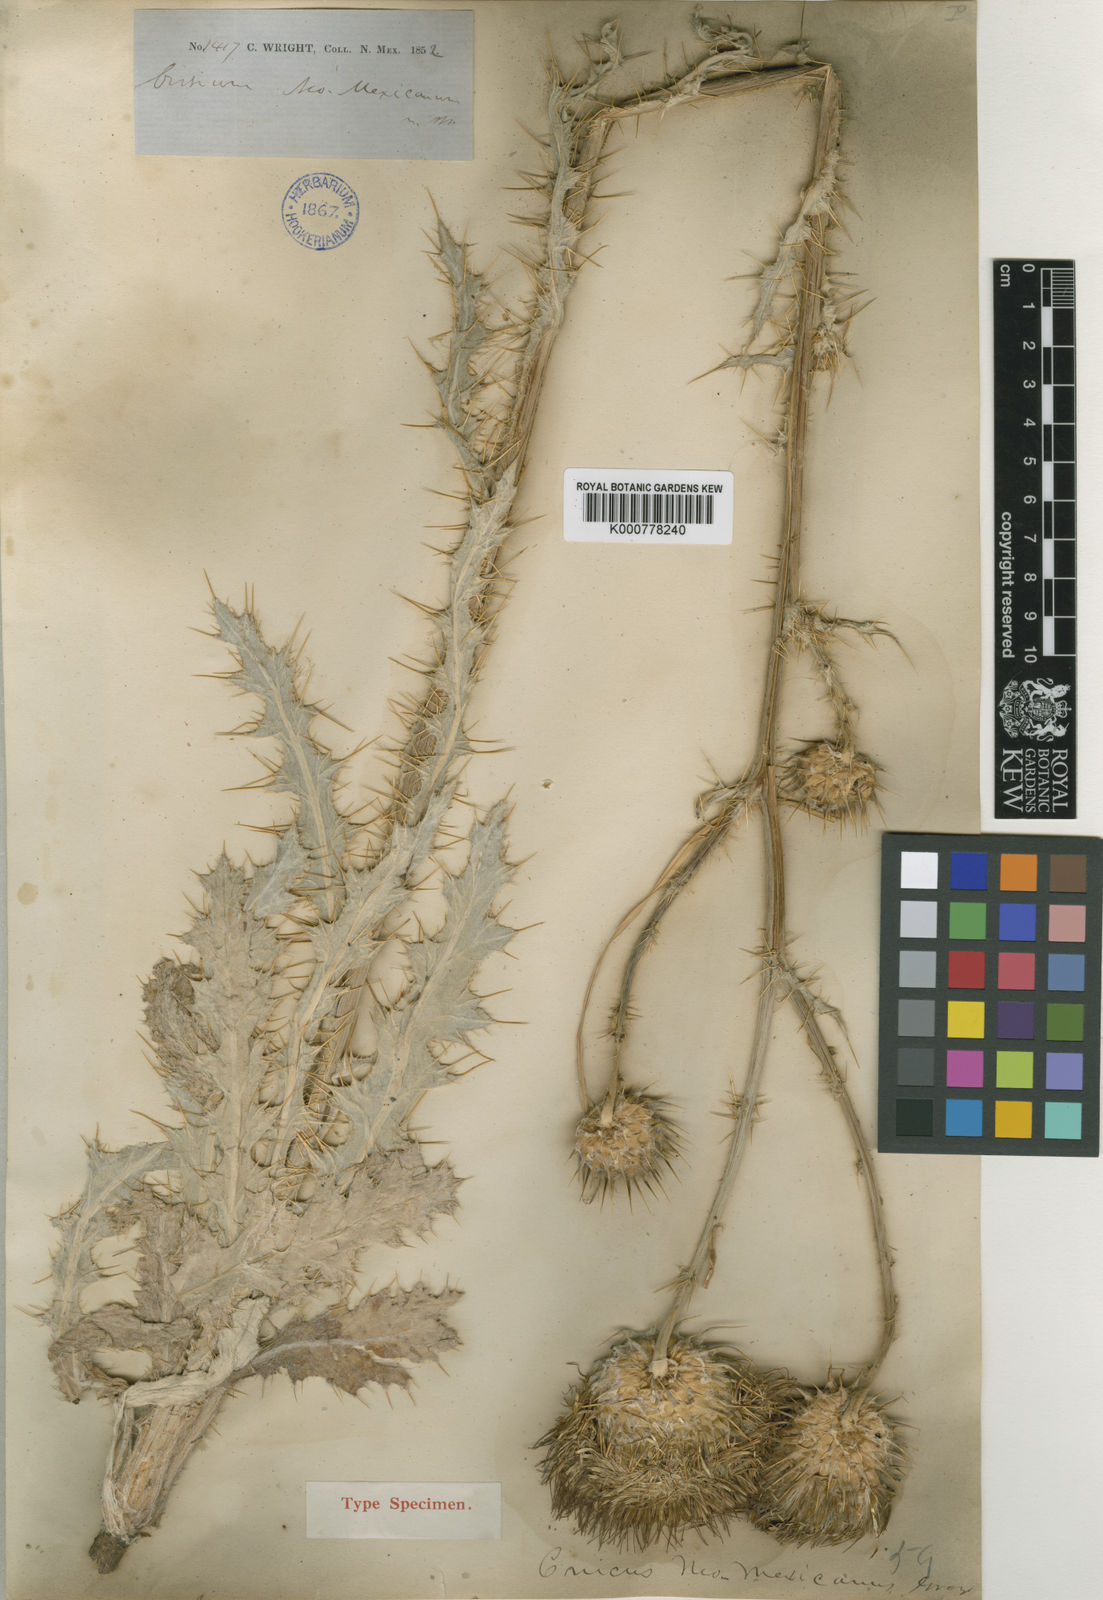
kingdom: Plantae
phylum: Tracheophyta
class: Magnoliopsida
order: Asterales
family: Asteraceae
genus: Cirsium
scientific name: Cirsium
